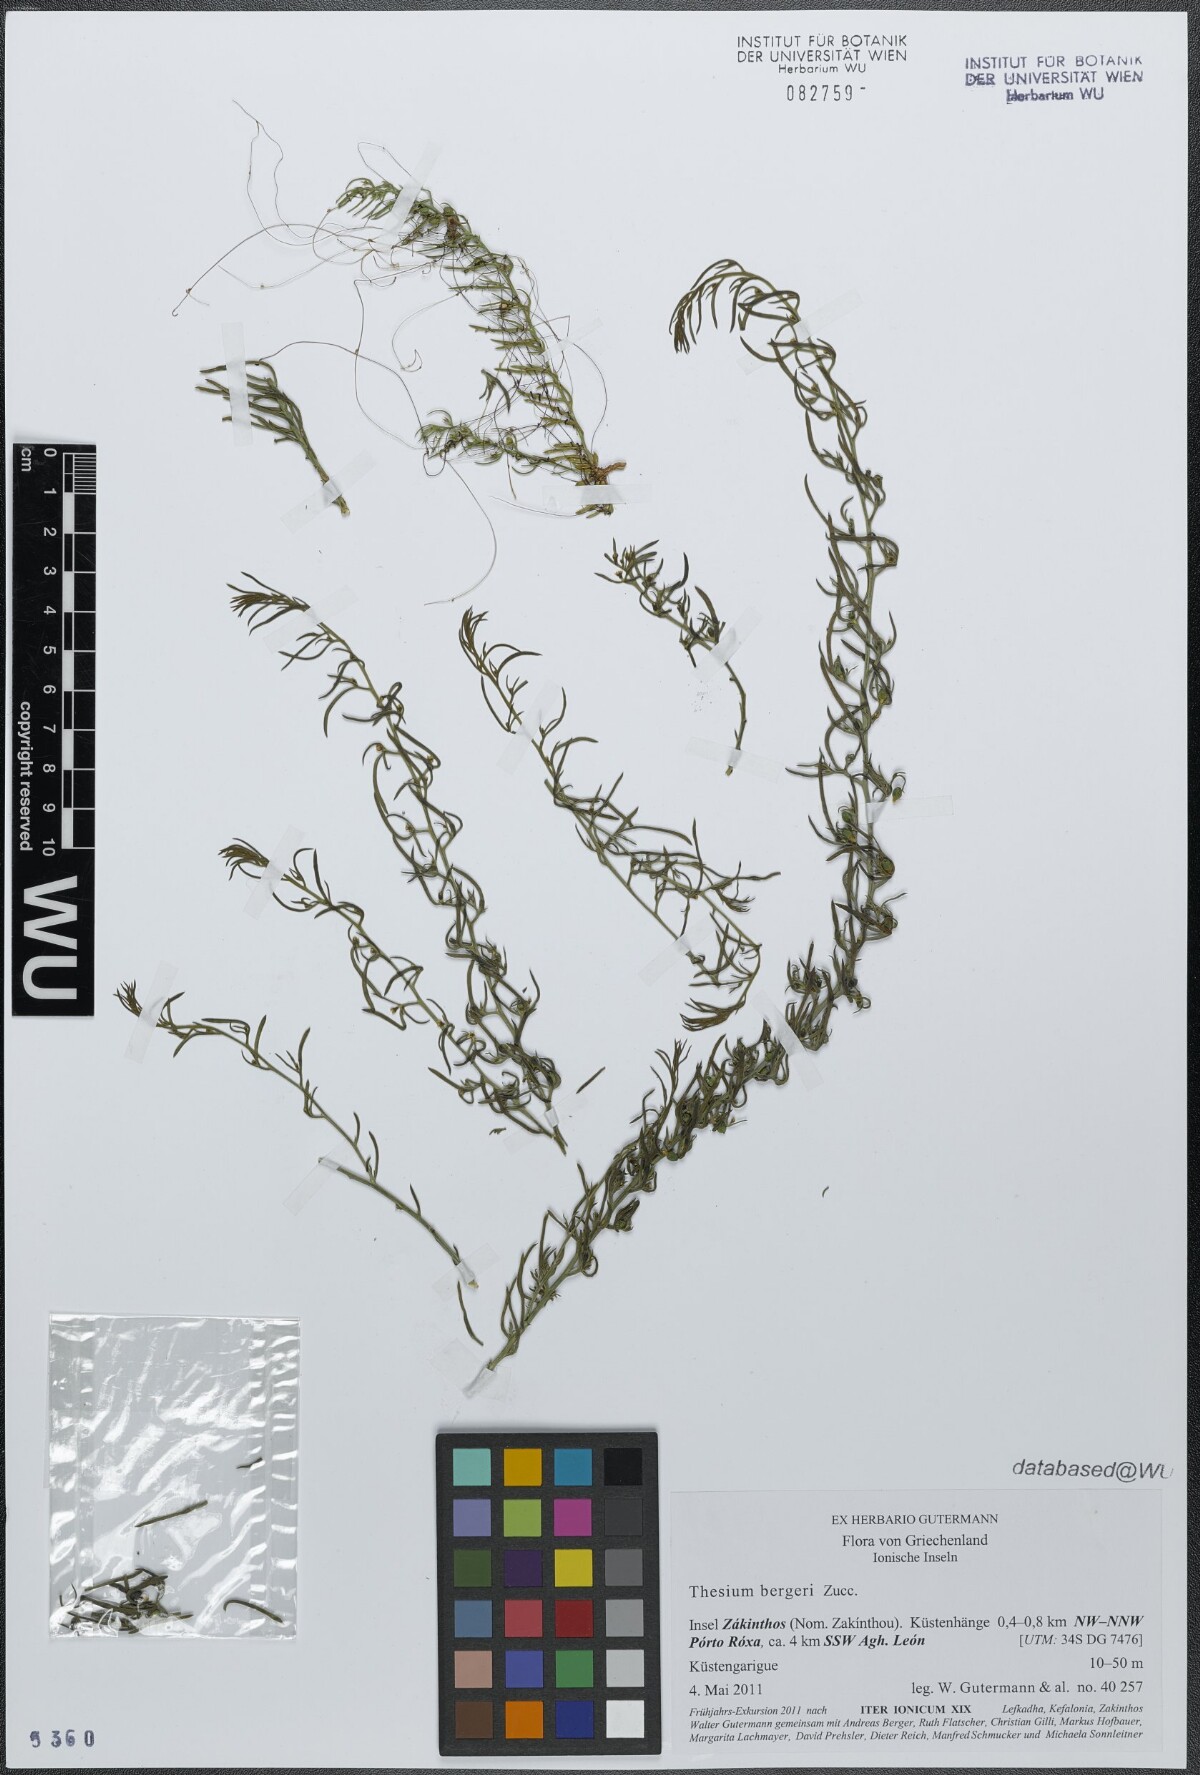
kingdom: Plantae
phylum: Tracheophyta
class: Magnoliopsida
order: Santalales
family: Thesiaceae
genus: Thesium
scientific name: Thesium bergeri
